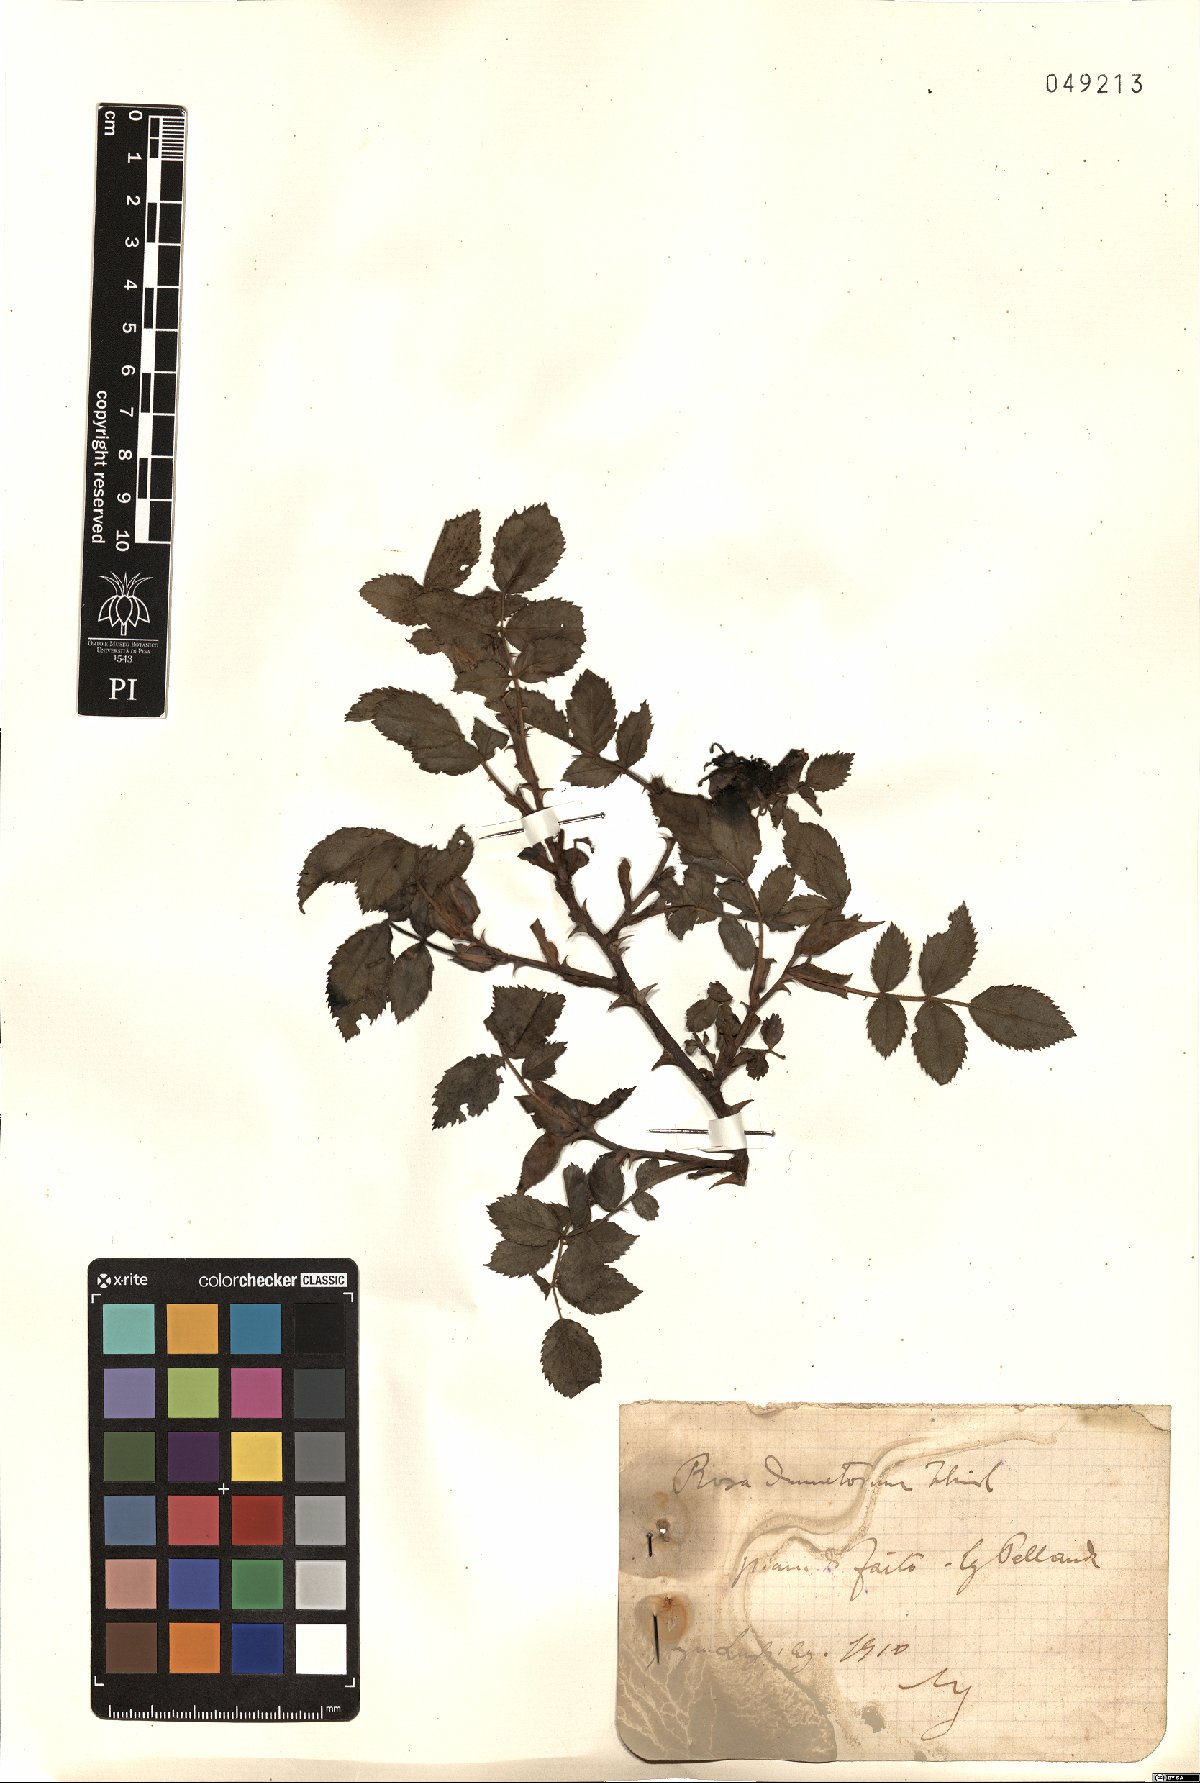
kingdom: Plantae
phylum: Tracheophyta
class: Magnoliopsida
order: Rosales
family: Rosaceae
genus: Rosa
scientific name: Rosa corymbifera
